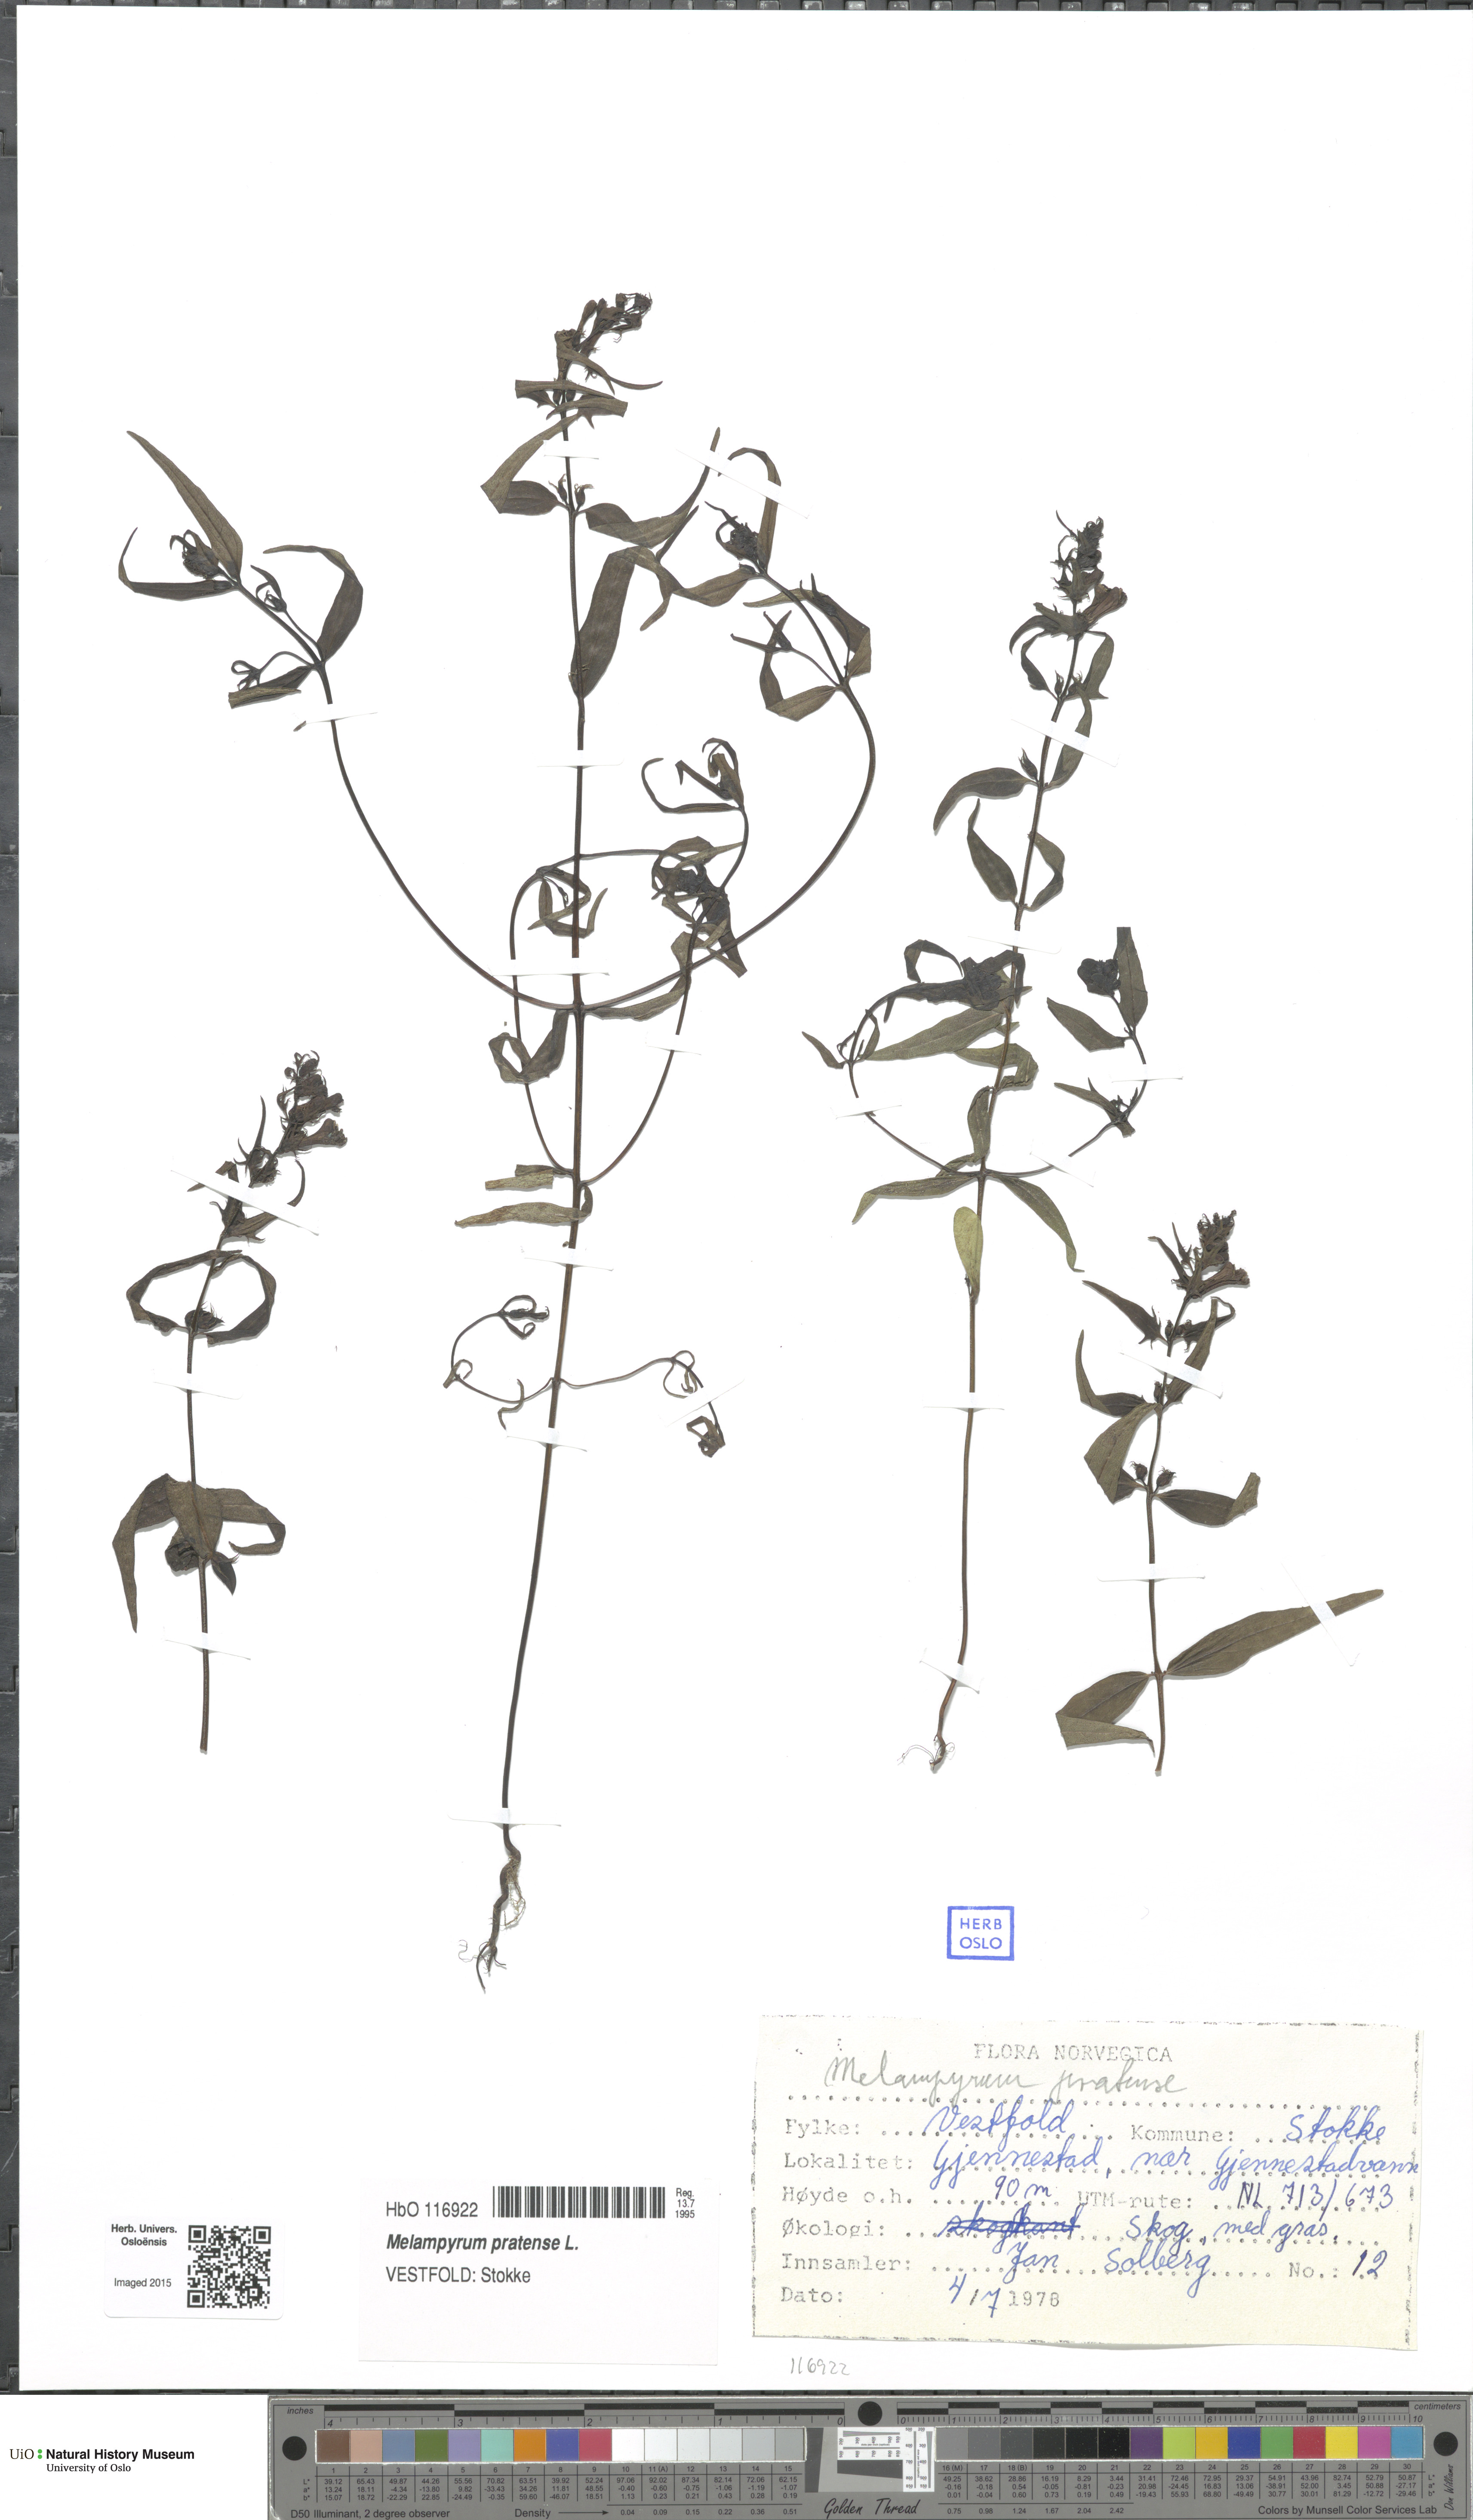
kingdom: Plantae
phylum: Tracheophyta
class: Magnoliopsida
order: Lamiales
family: Orobanchaceae
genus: Melampyrum
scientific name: Melampyrum pratense
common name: Common cow-wheat
